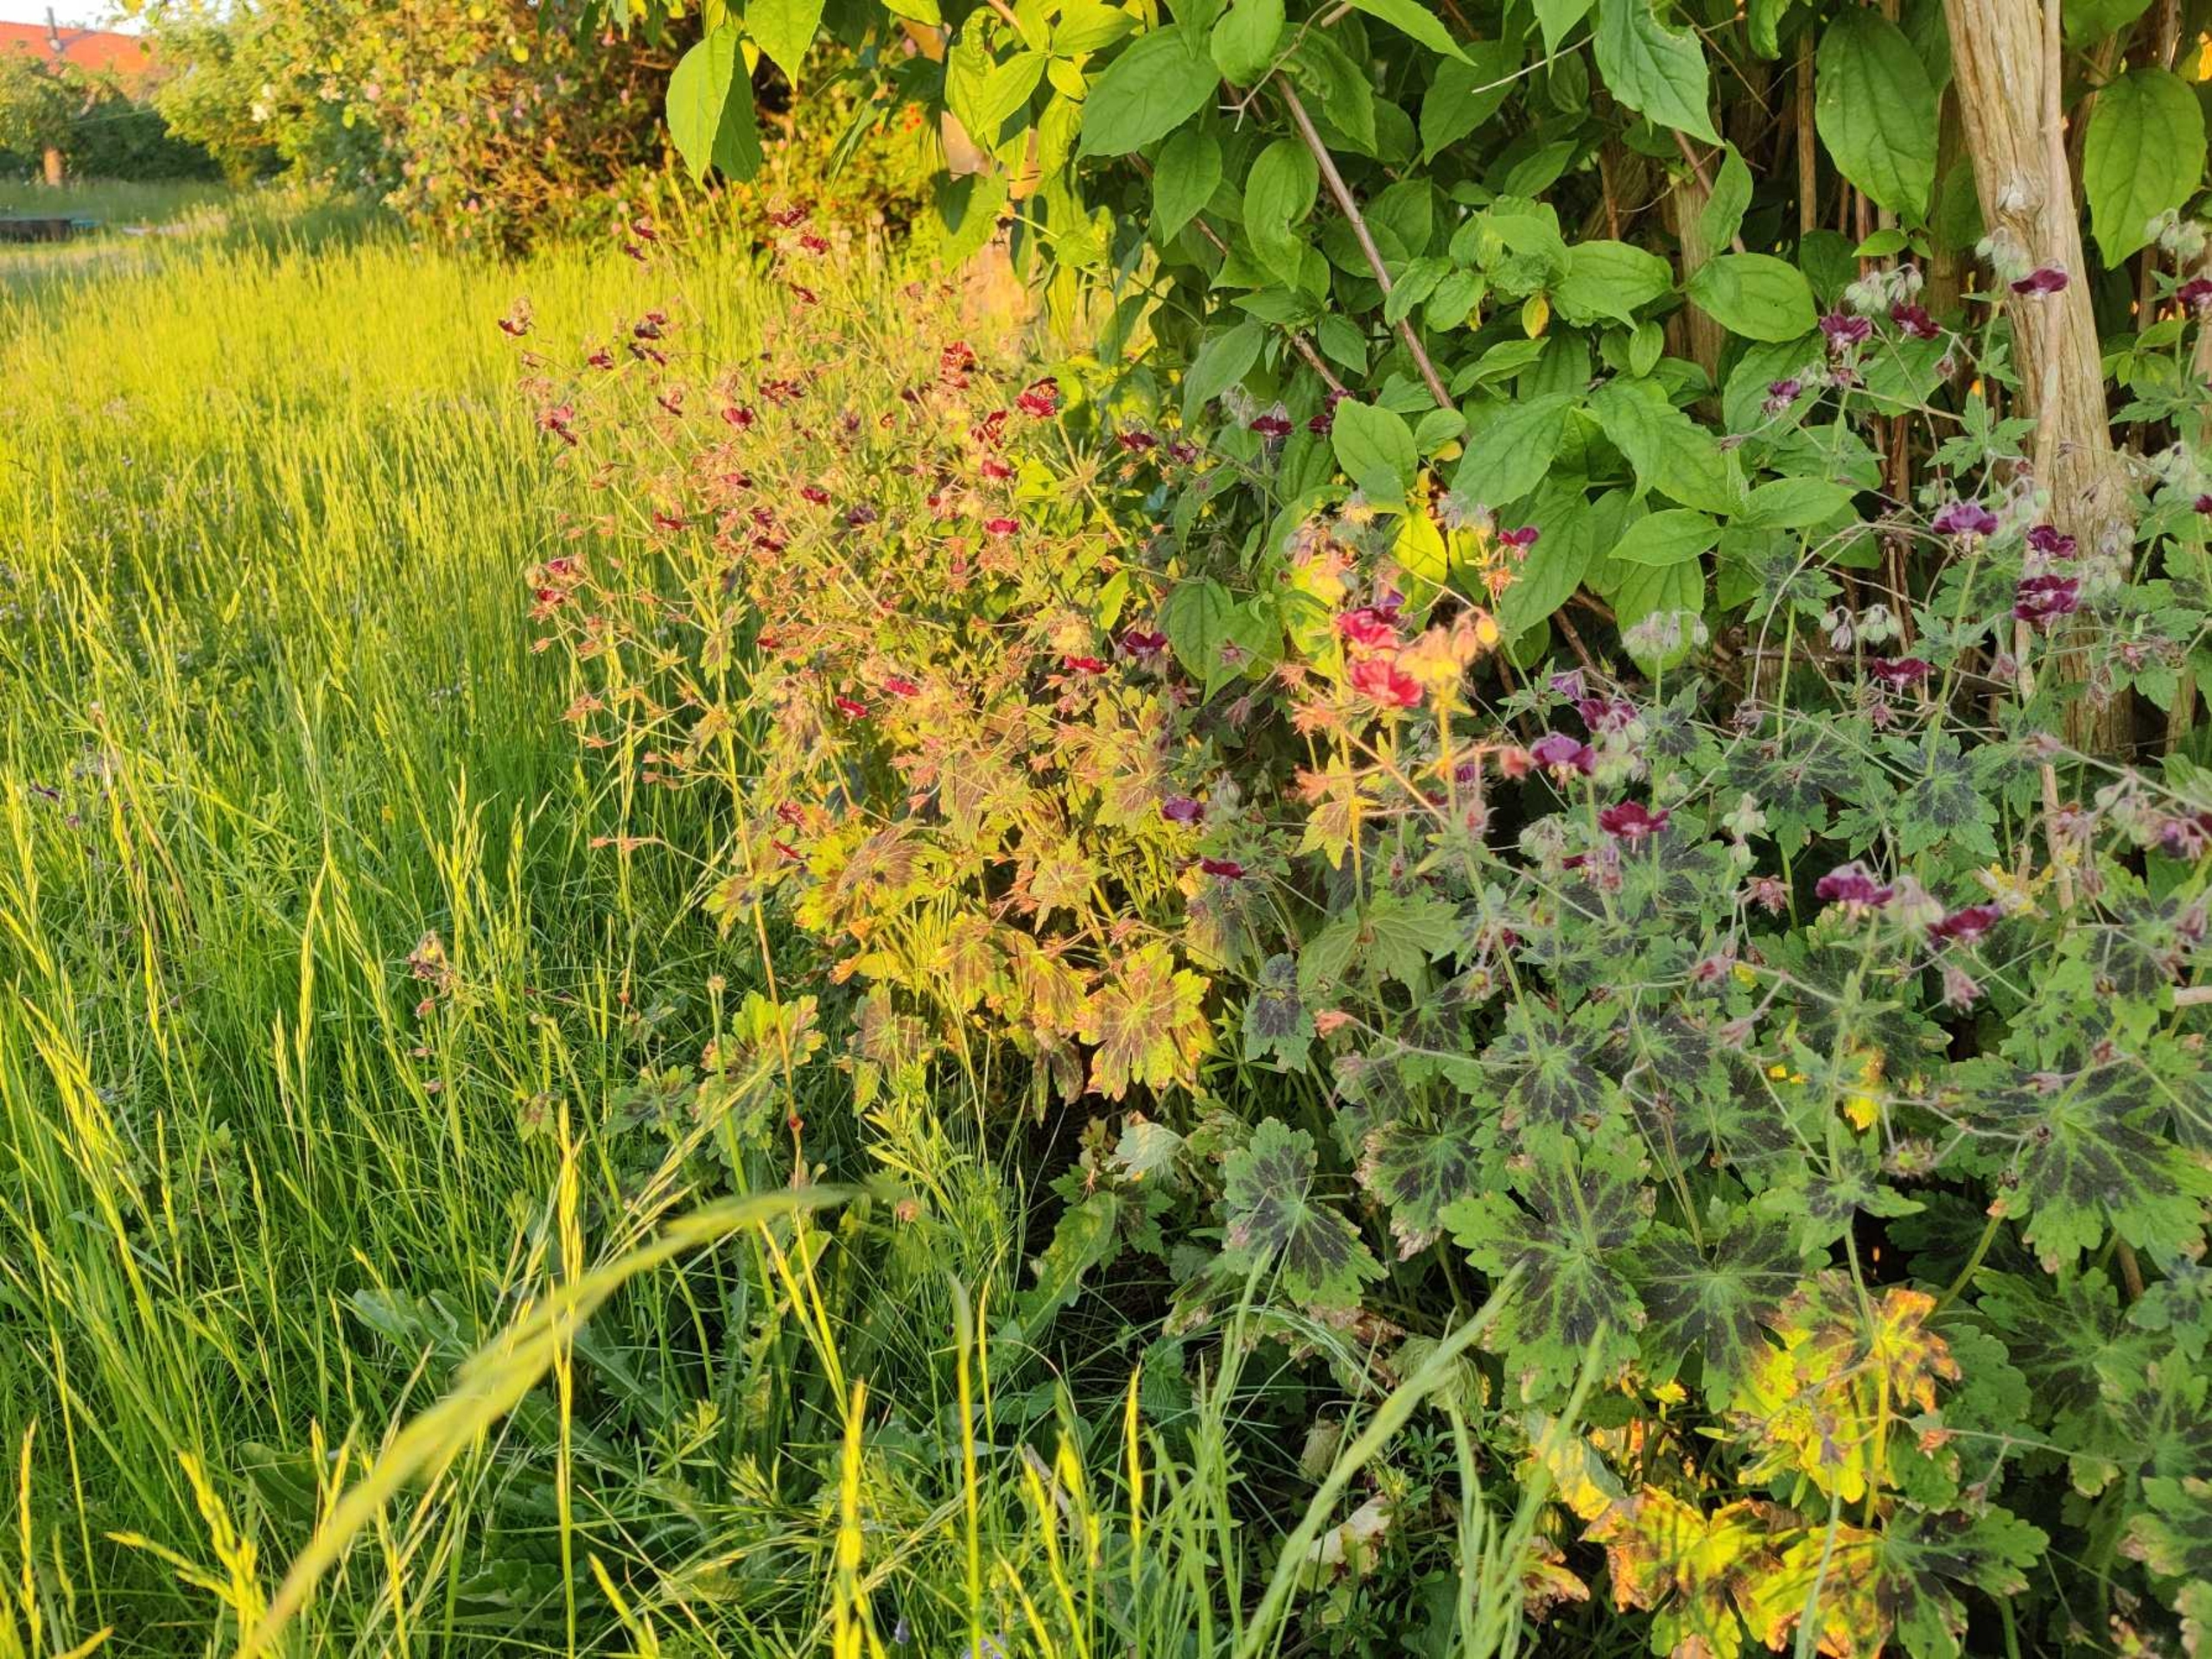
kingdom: Plantae
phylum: Tracheophyta
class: Magnoliopsida
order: Geraniales
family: Geraniaceae
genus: Geranium
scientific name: Geranium phaeum
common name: Bølgekronet storkenæb
